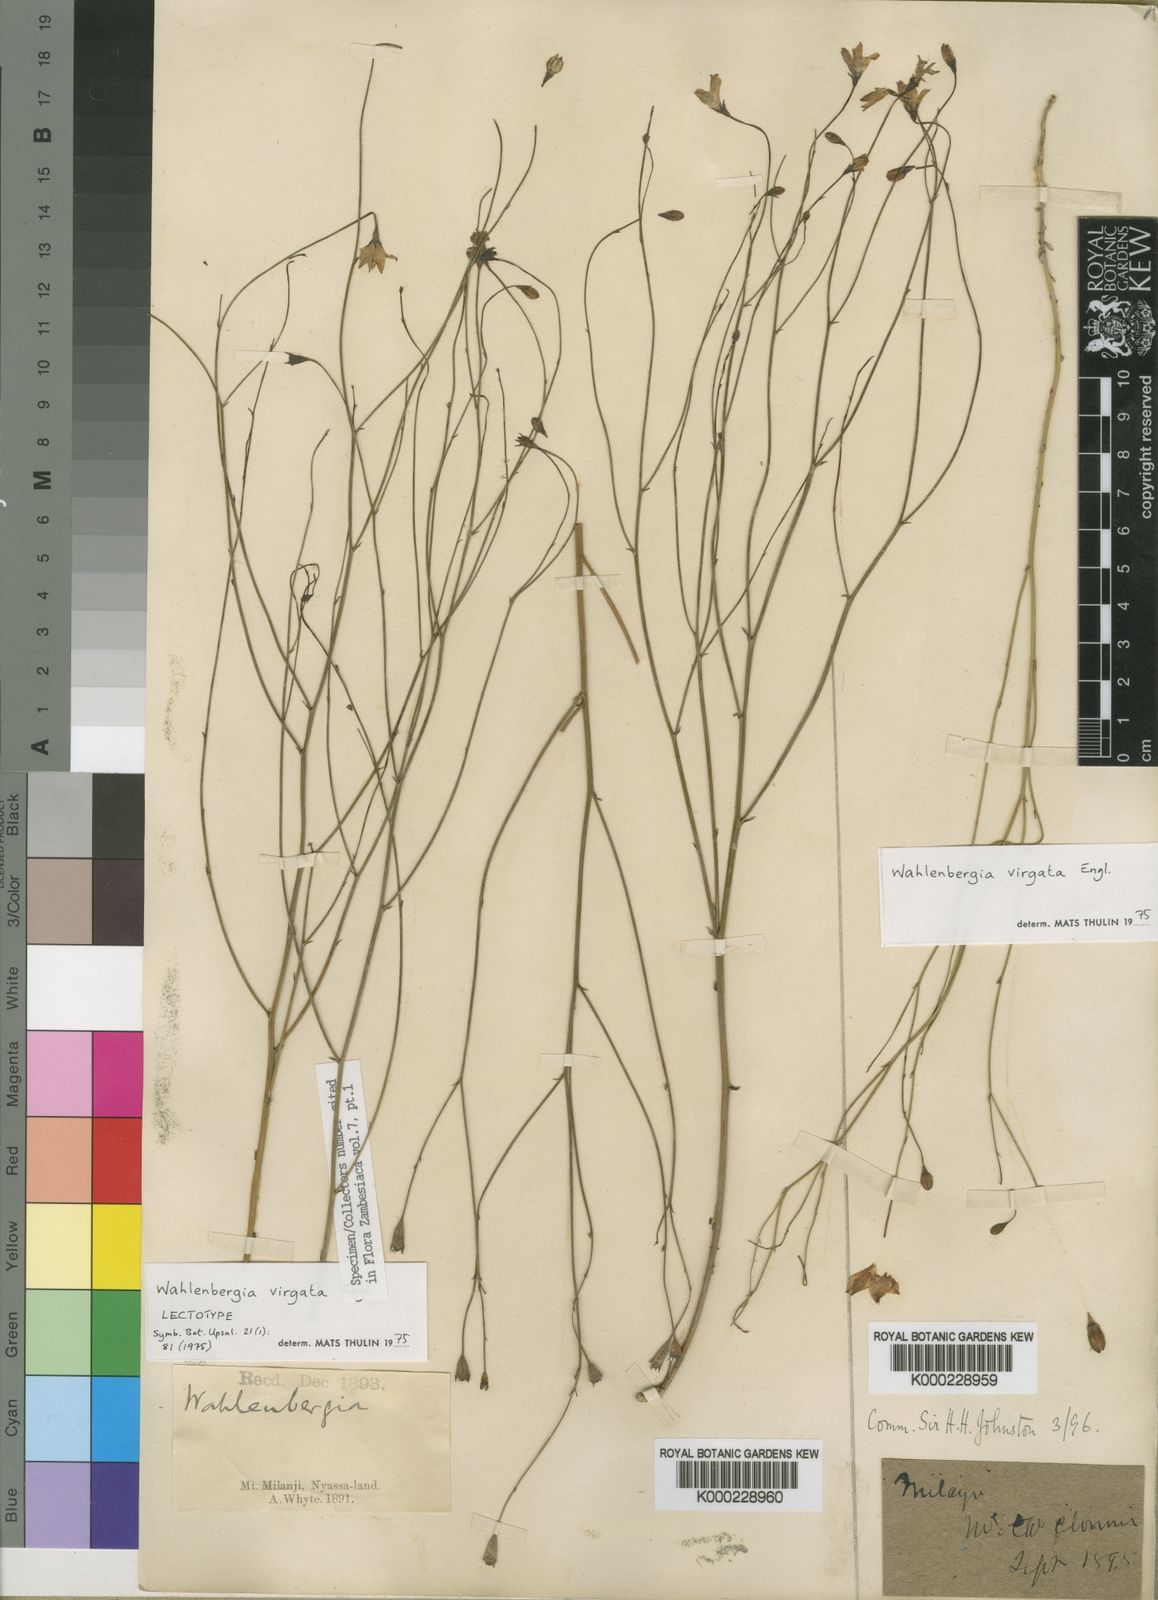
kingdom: Plantae
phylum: Tracheophyta
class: Magnoliopsida
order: Asterales
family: Campanulaceae
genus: Wahlenbergia
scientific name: Wahlenbergia virgata
